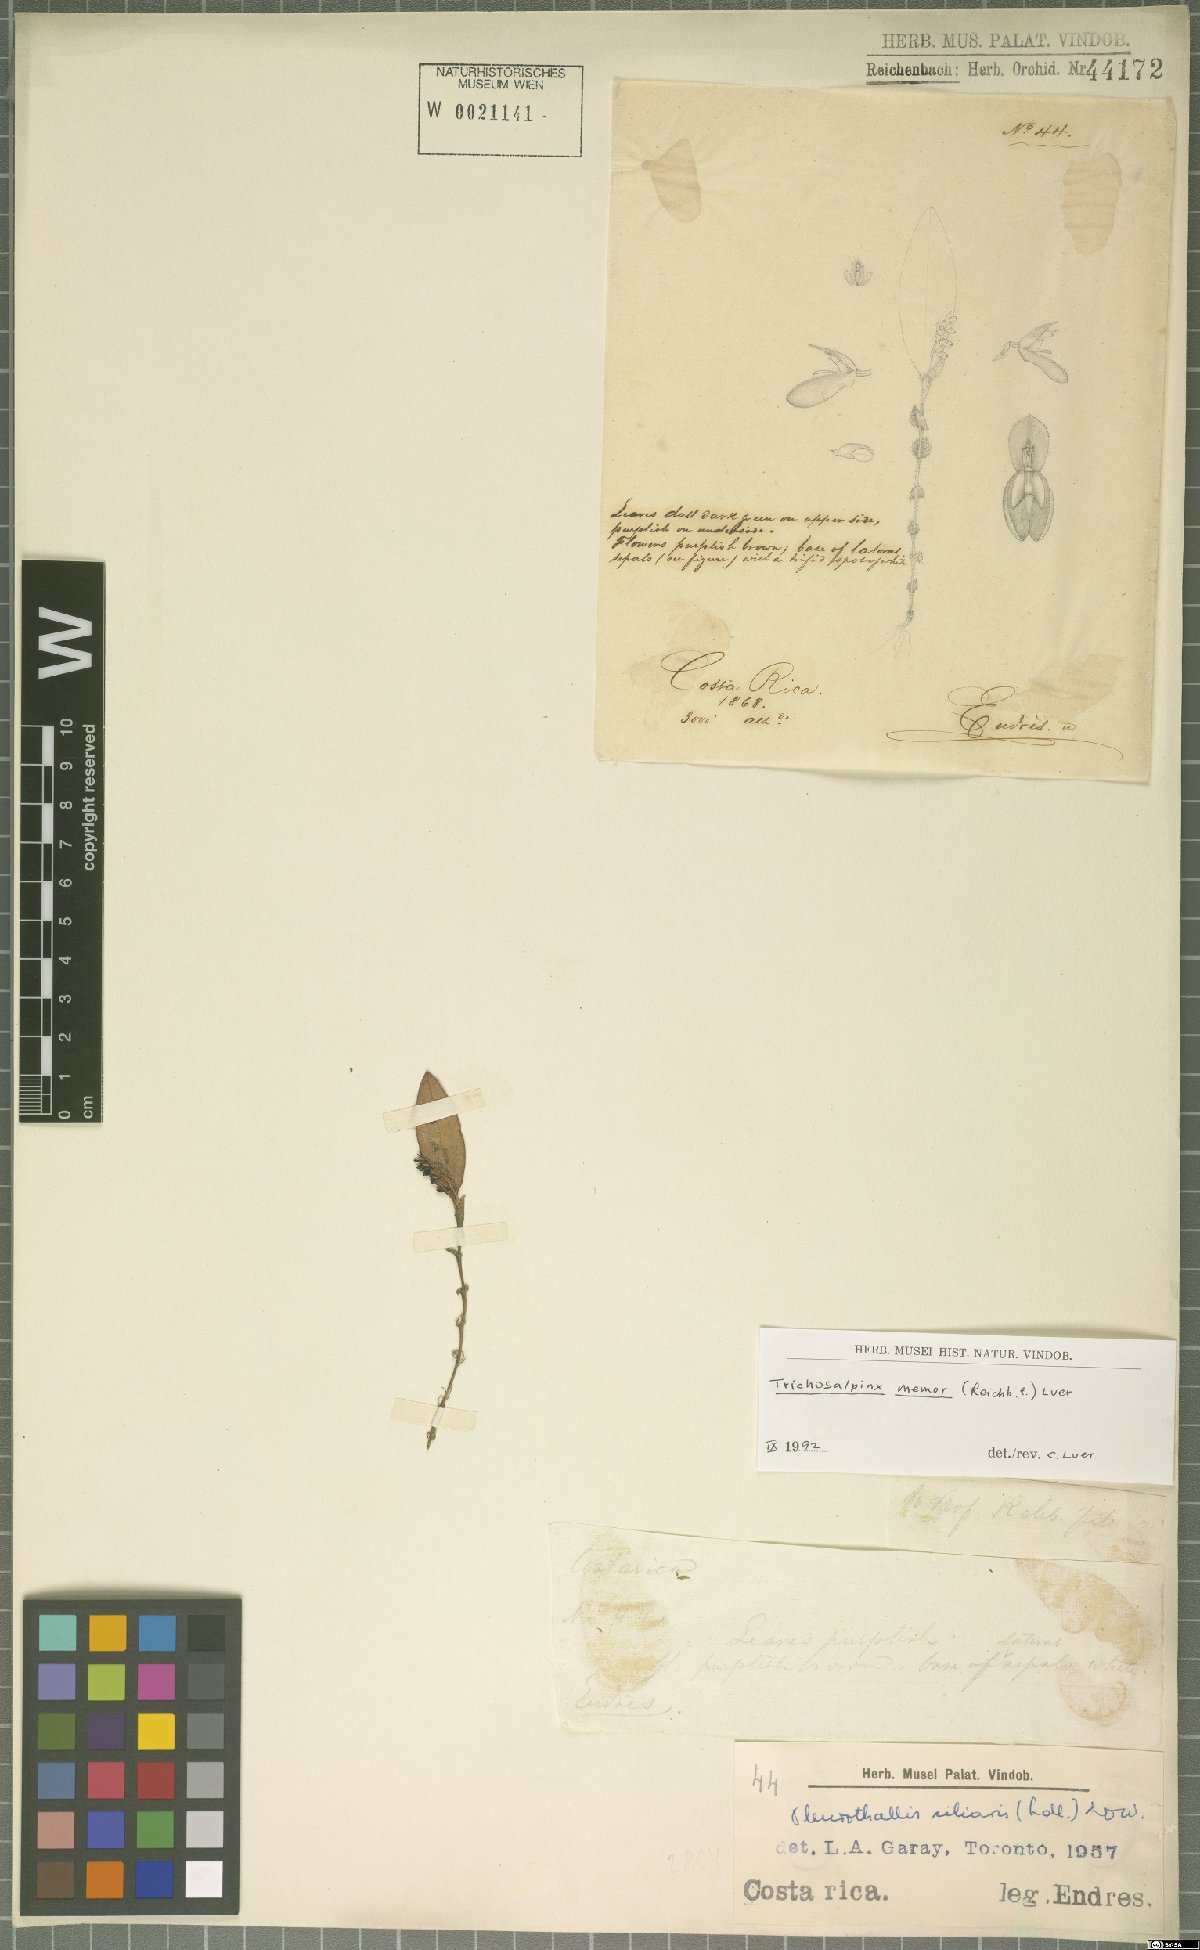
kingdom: Plantae
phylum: Tracheophyta
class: Liliopsida
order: Asparagales
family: Orchidaceae
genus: Trichosalpinx
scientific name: Trichosalpinx memor
